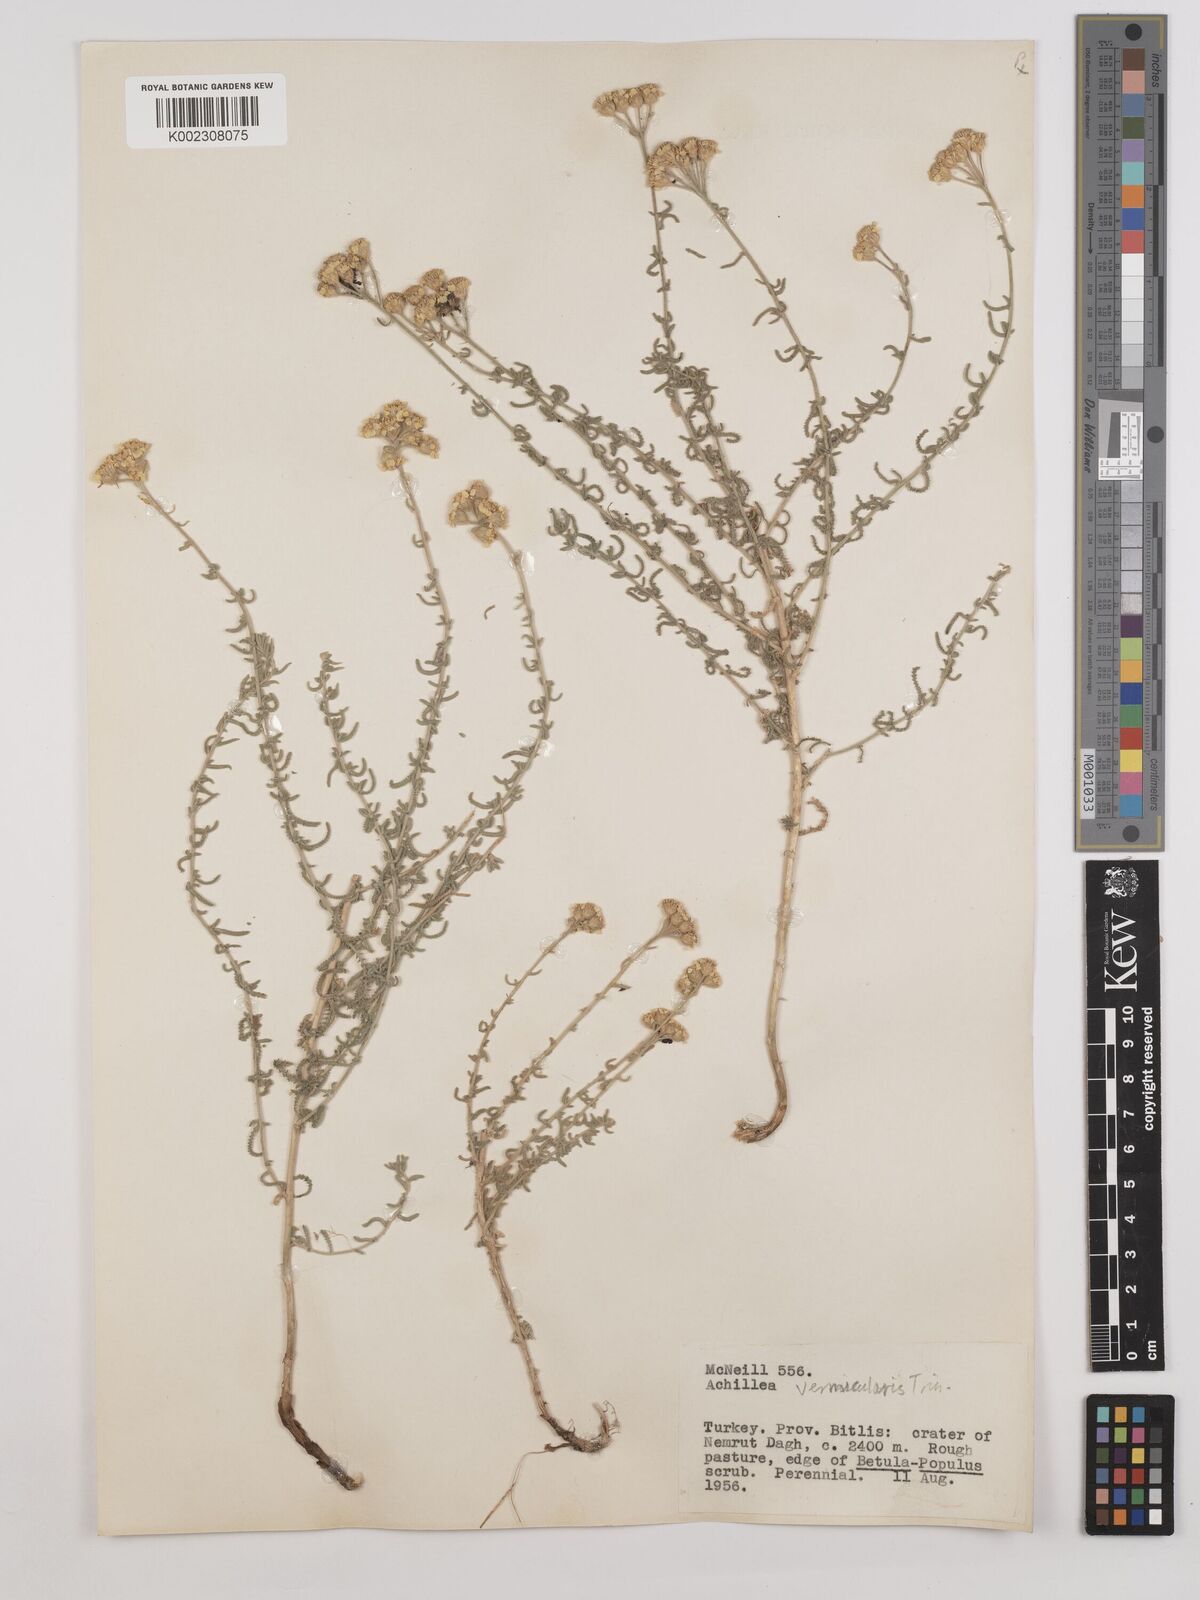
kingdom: Plantae
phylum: Tracheophyta
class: Magnoliopsida
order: Asterales
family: Asteraceae
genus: Achillea
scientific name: Achillea vermicularis
